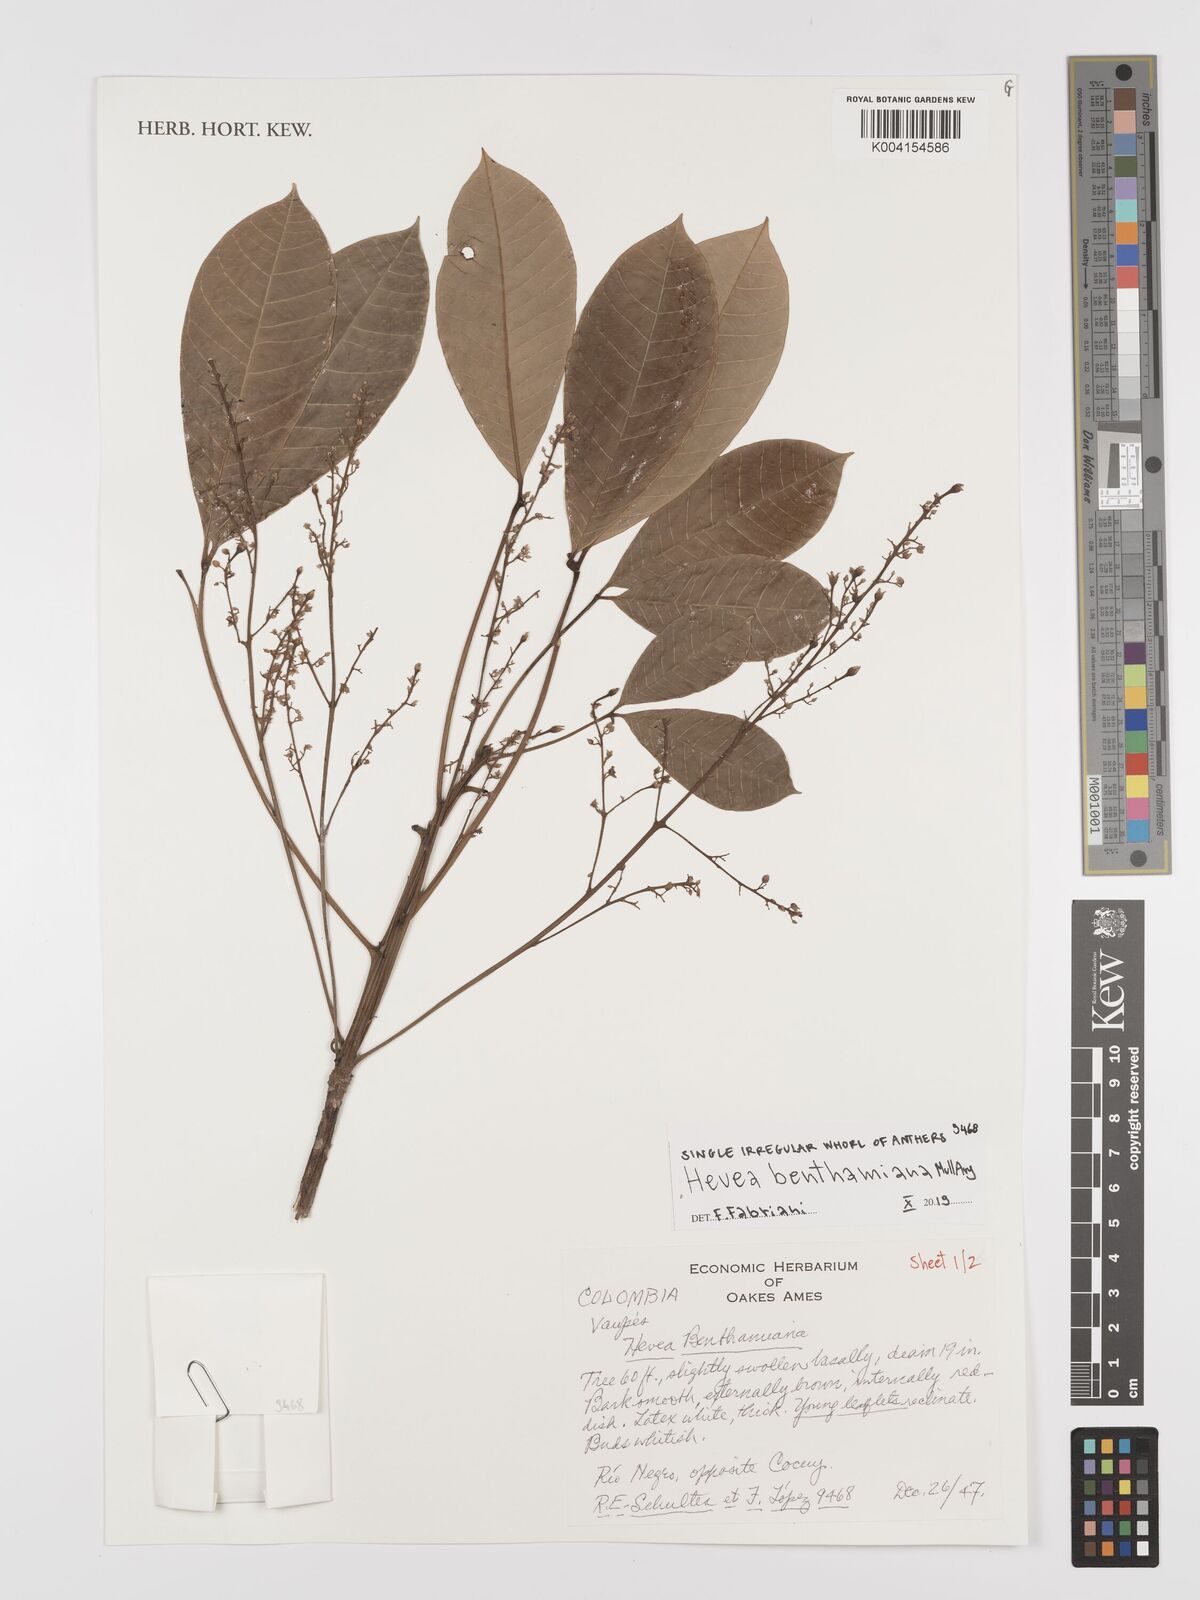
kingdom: Plantae
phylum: Tracheophyta
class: Magnoliopsida
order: Malpighiales
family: Euphorbiaceae
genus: Hevea
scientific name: Hevea benthamiana
